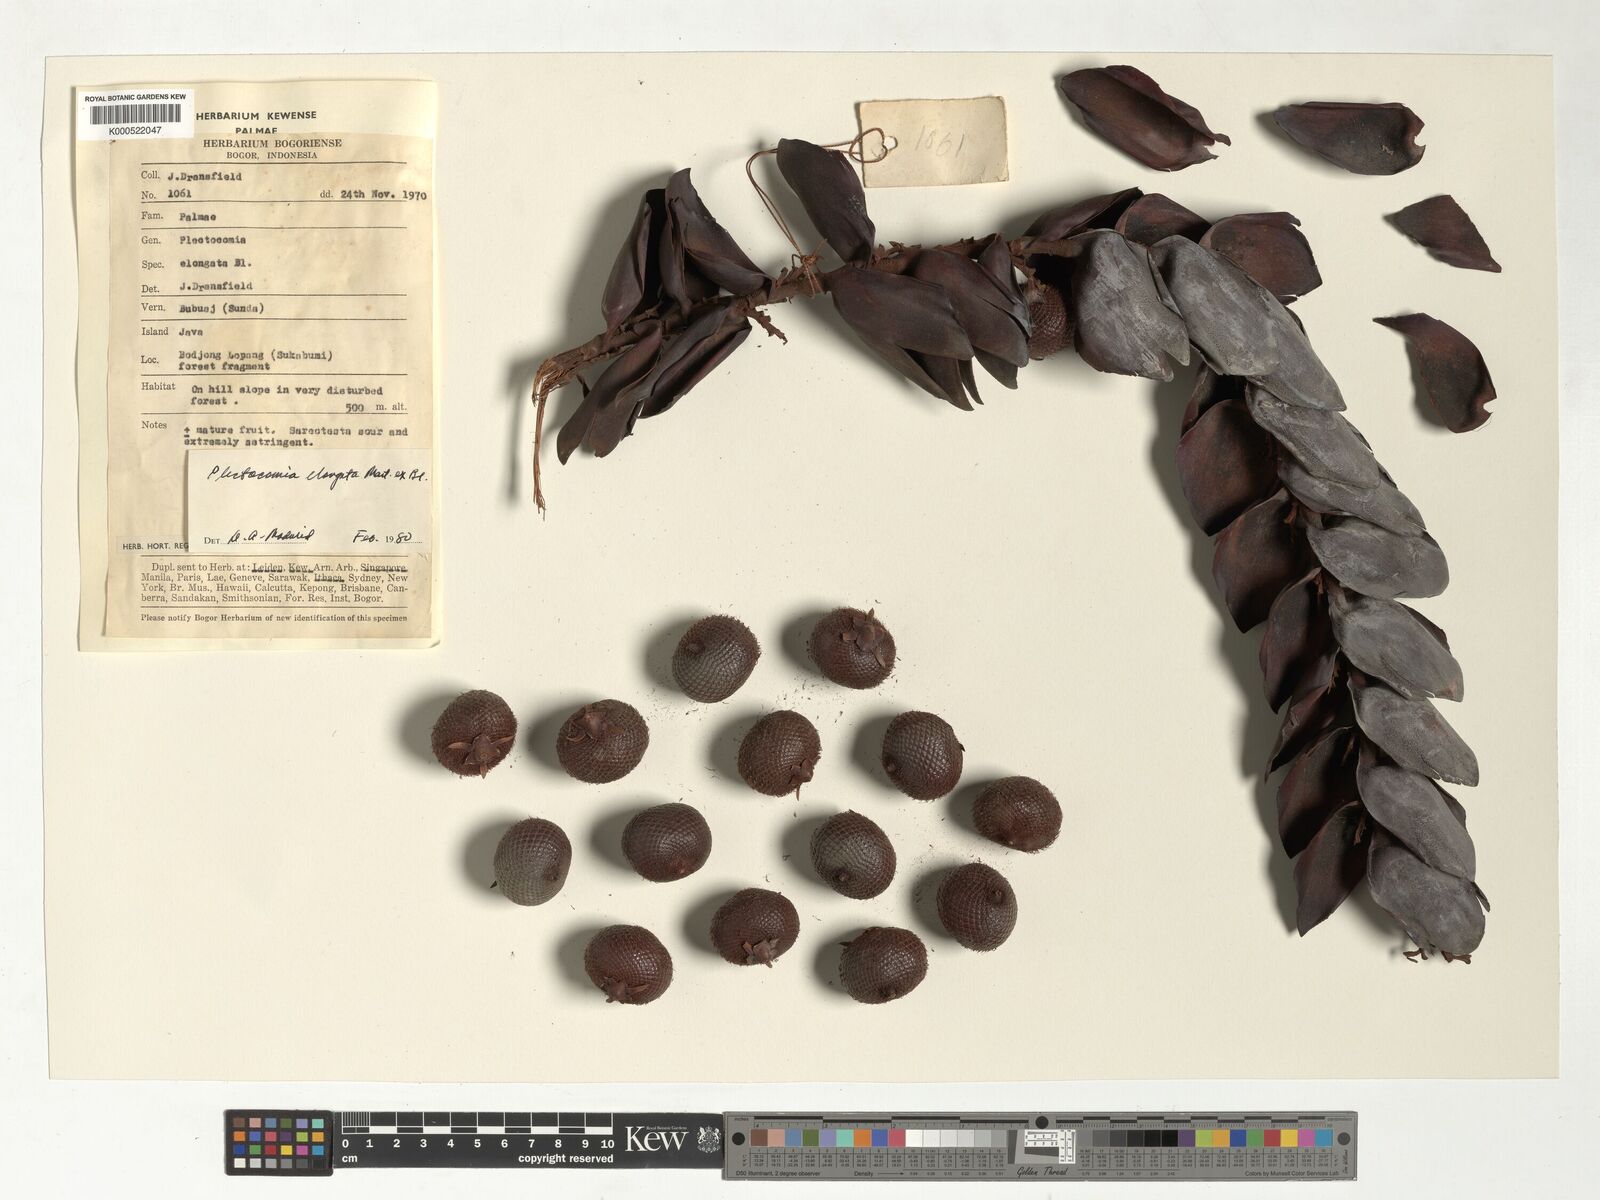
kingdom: Plantae
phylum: Tracheophyta
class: Liliopsida
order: Arecales
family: Arecaceae
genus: Plectocomia
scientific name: Plectocomia elongata
